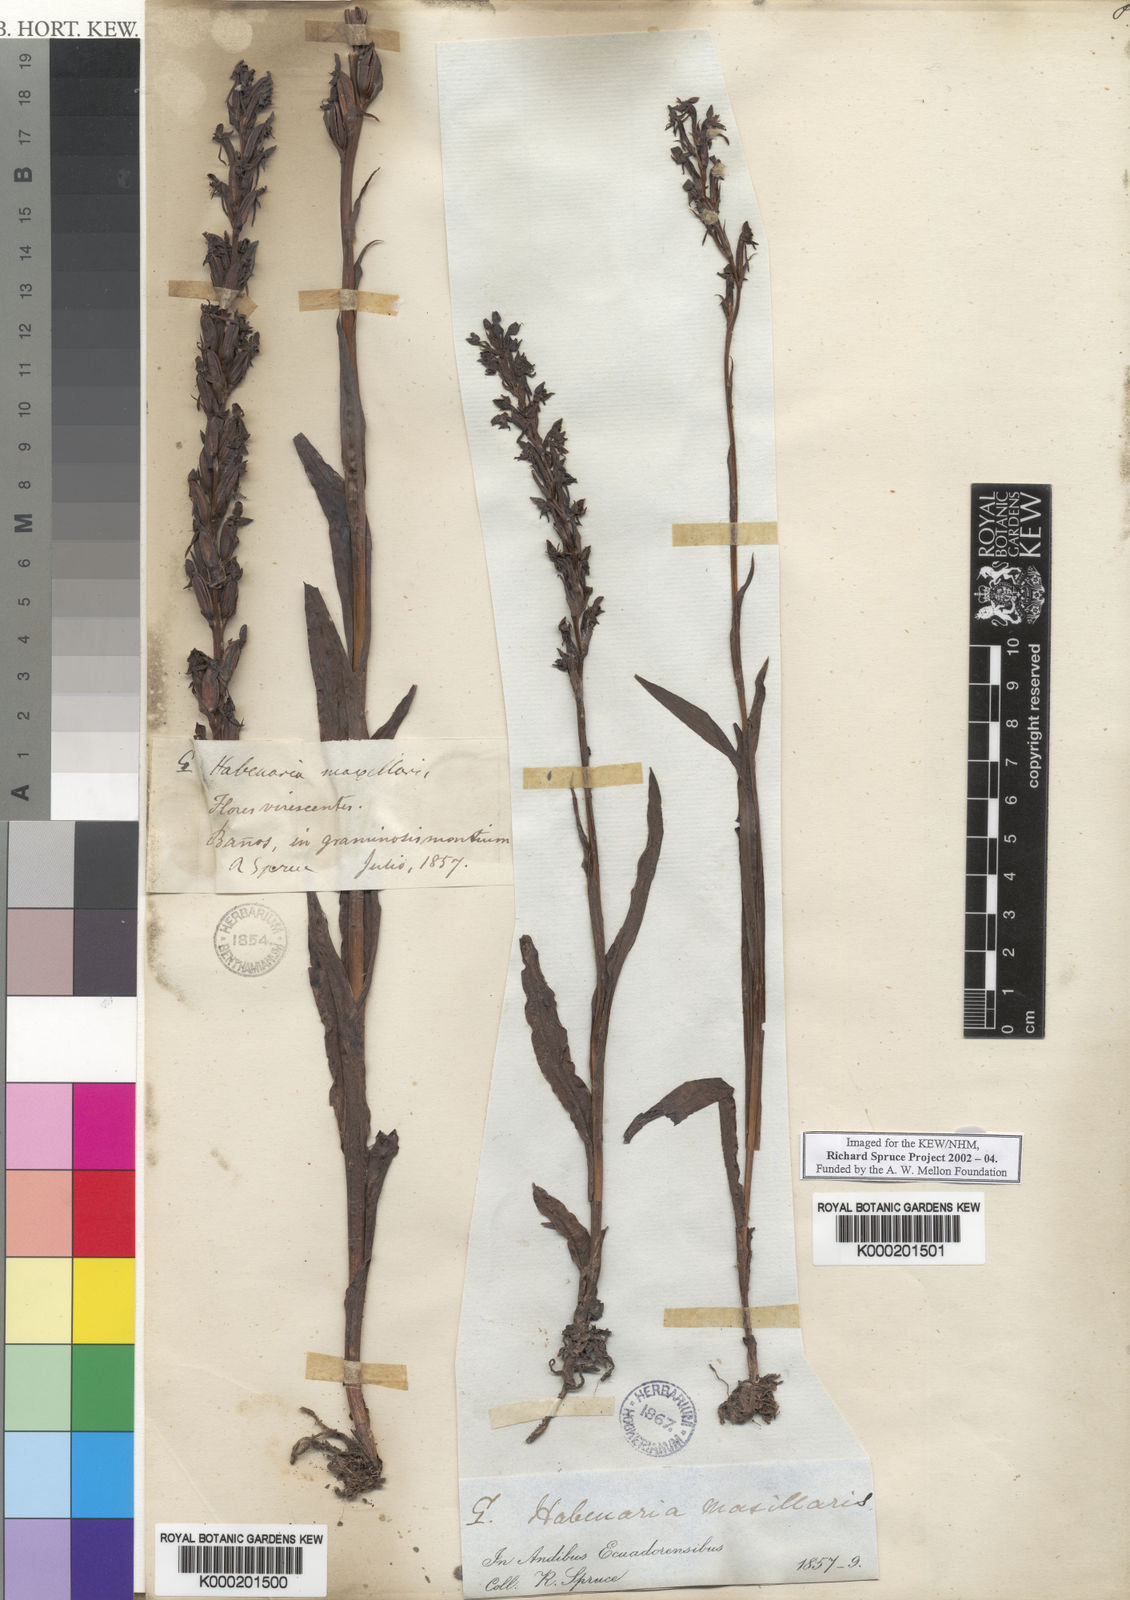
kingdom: Plantae
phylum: Tracheophyta
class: Liliopsida
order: Asparagales
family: Orchidaceae
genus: Habenaria
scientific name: Habenaria repens
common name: Water orchid
